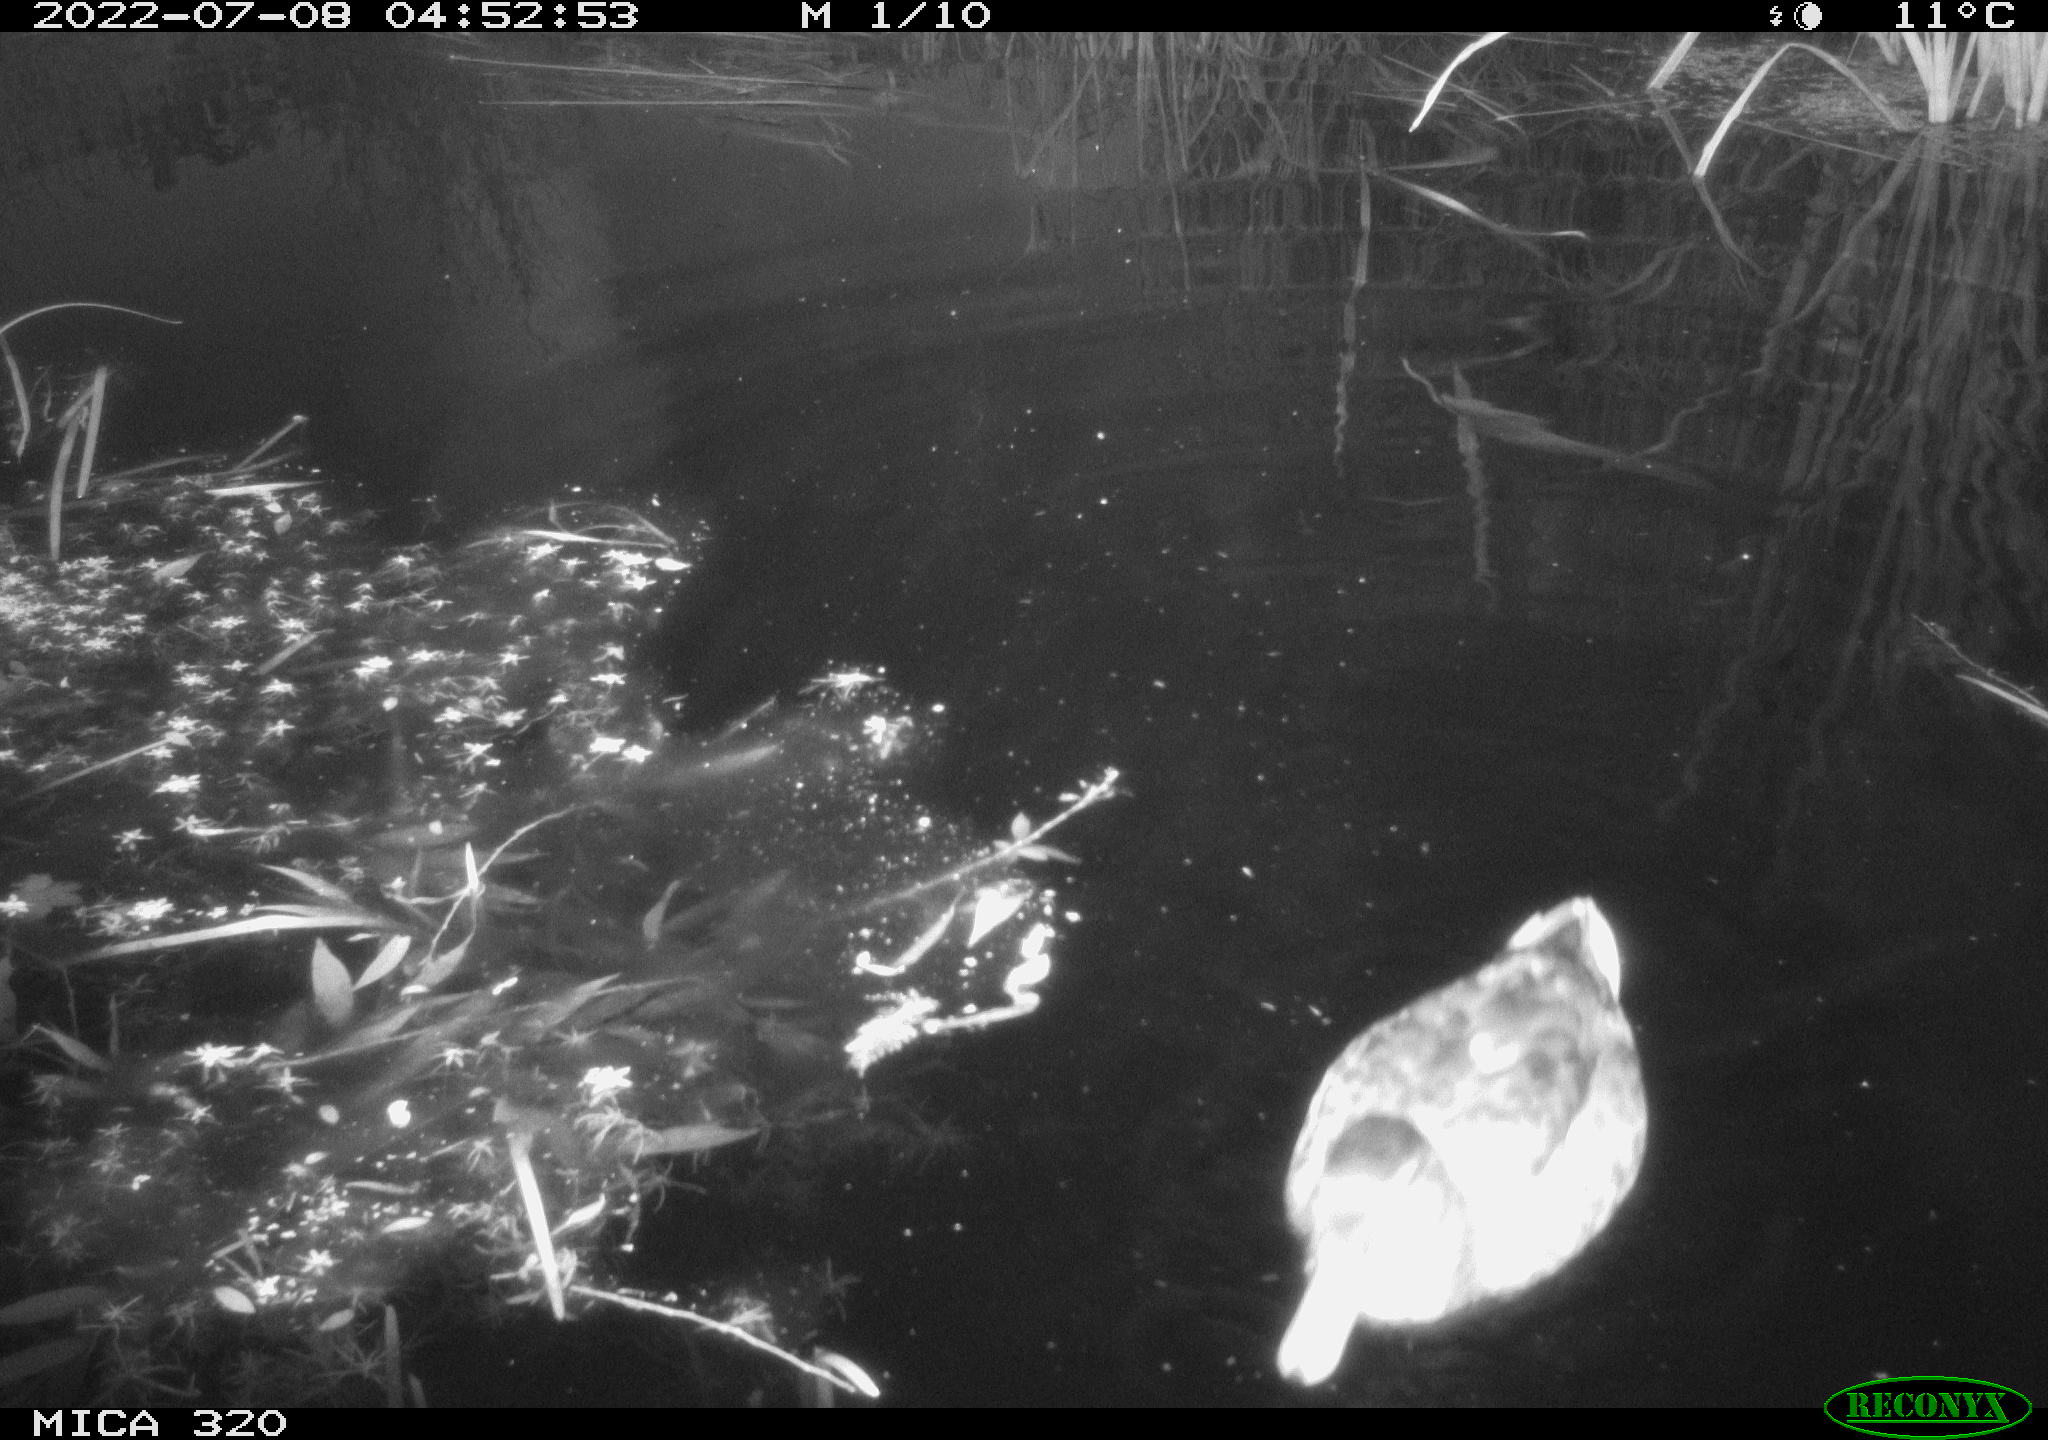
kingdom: Animalia
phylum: Chordata
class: Aves
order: Anseriformes
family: Anatidae
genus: Anas
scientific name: Anas platyrhynchos
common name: Mallard
